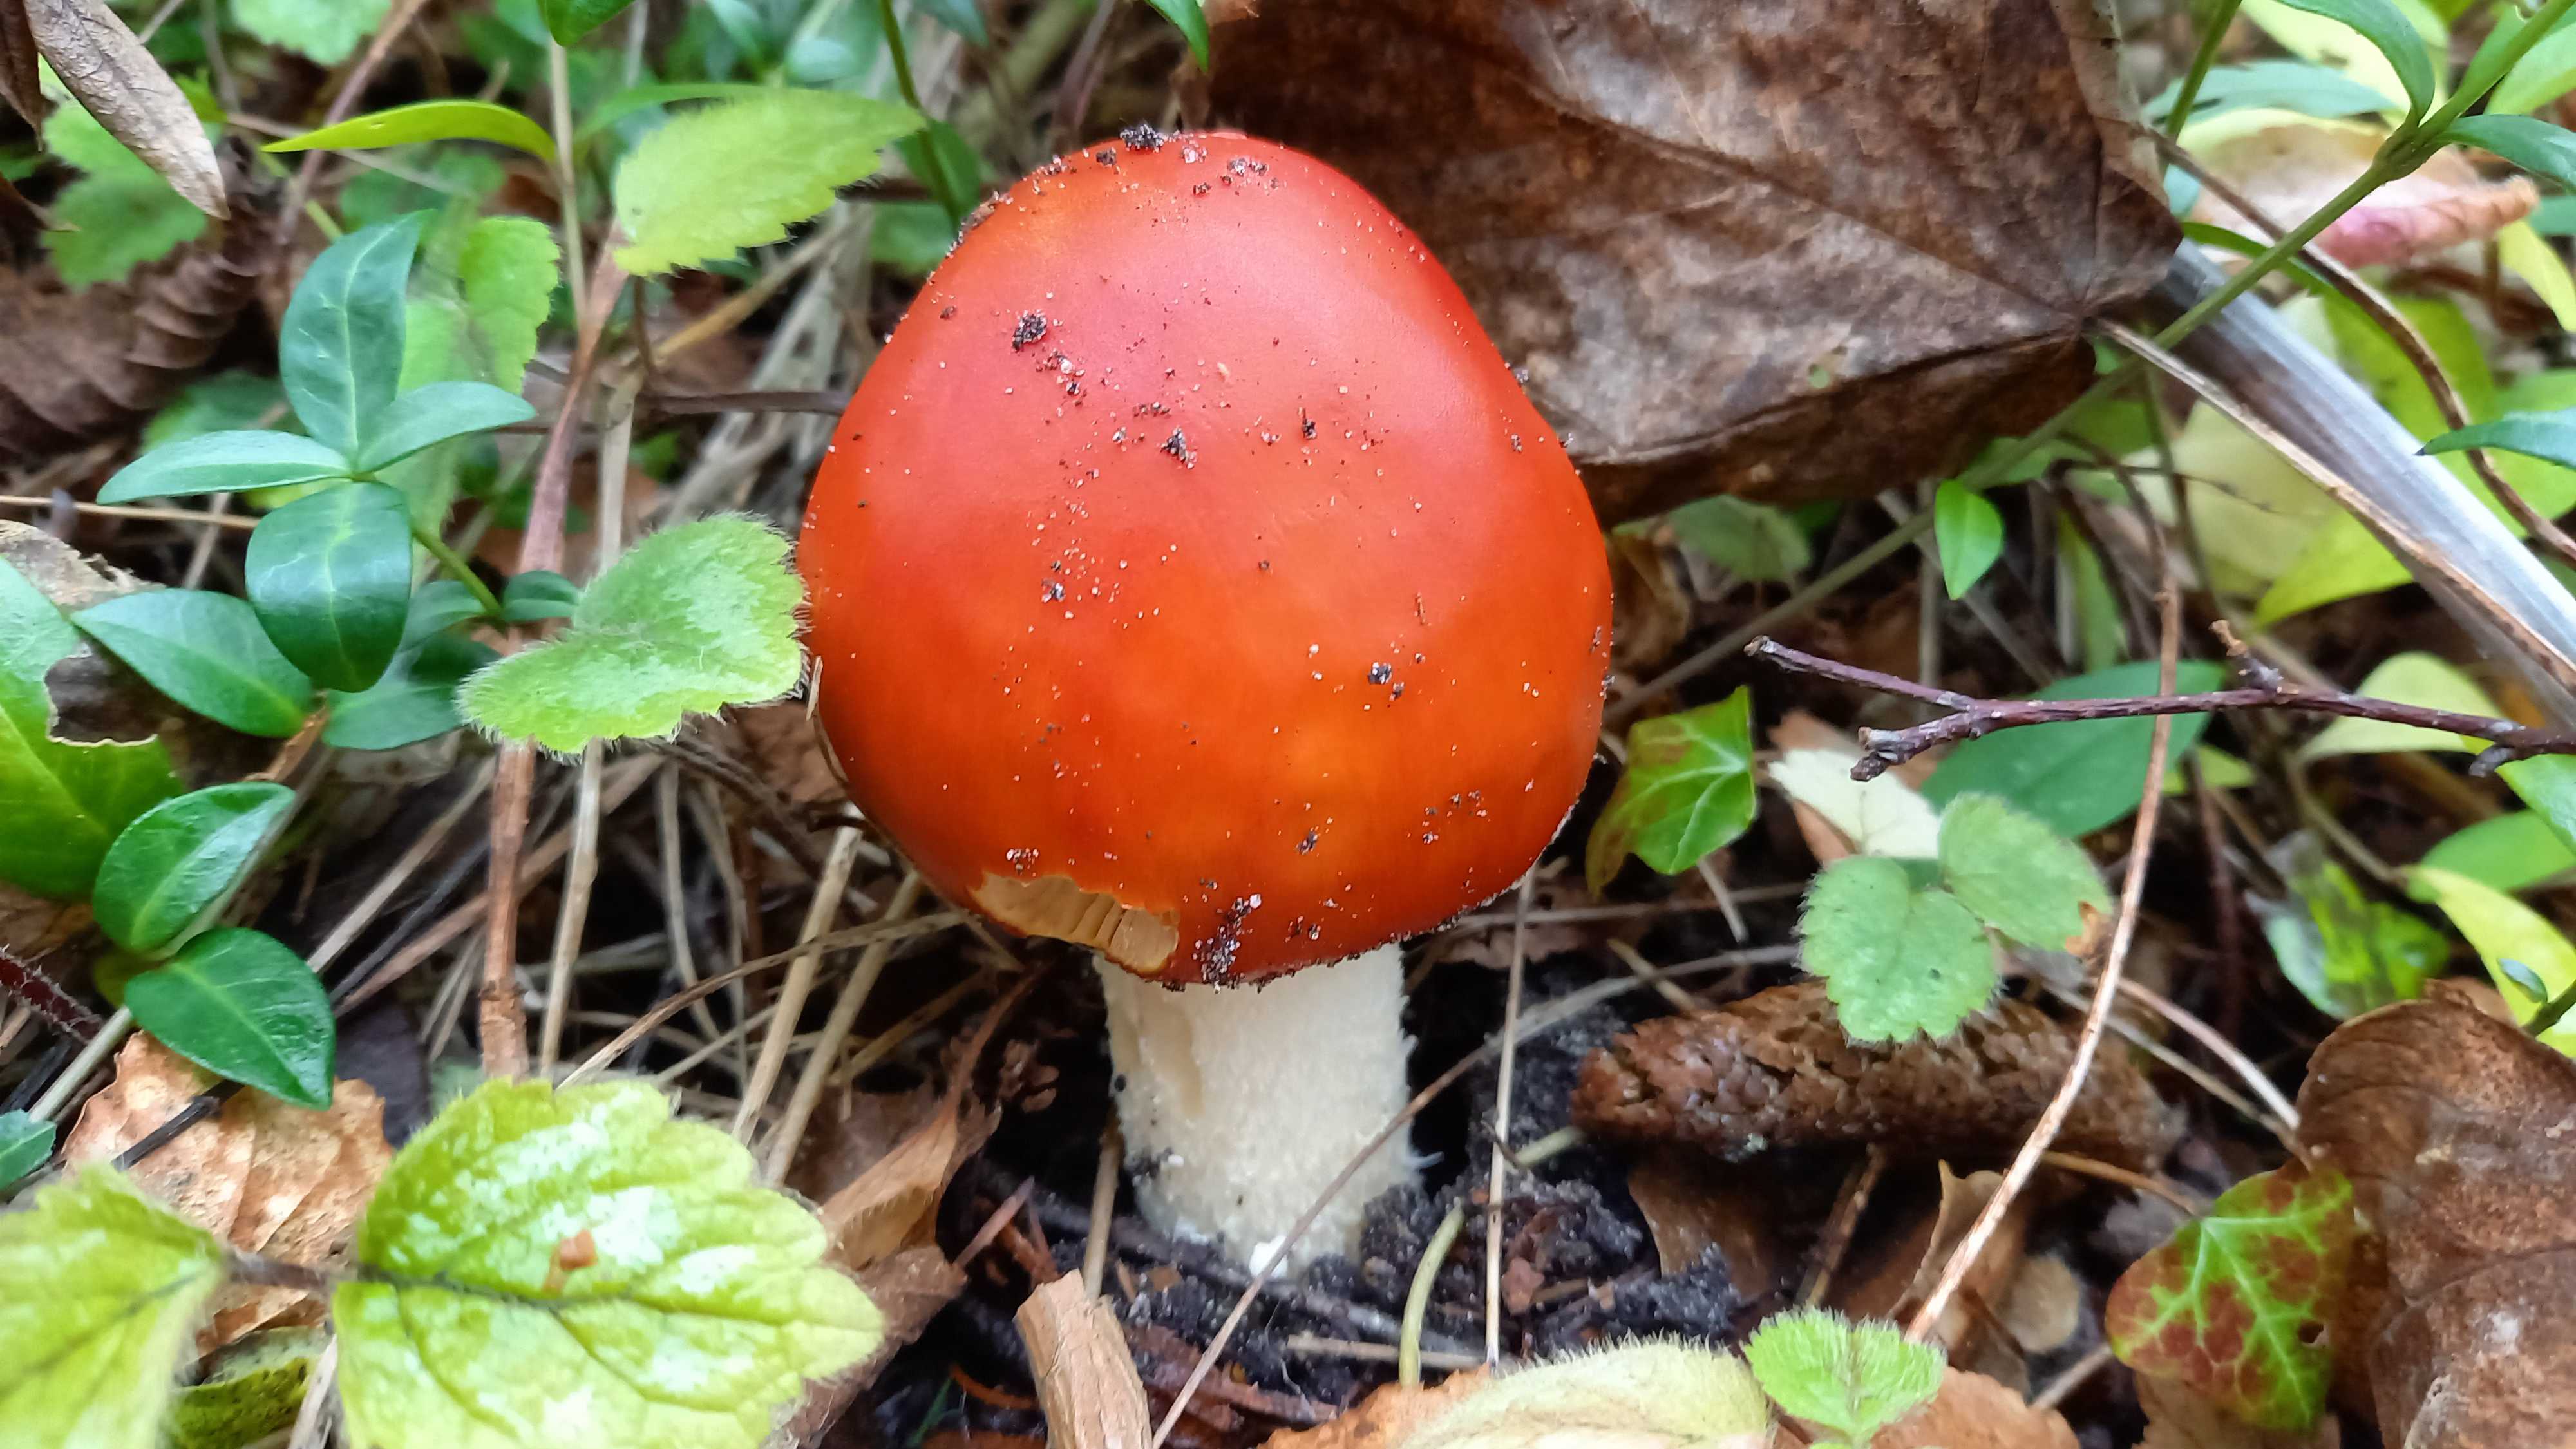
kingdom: Fungi
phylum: Basidiomycota
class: Agaricomycetes
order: Agaricales
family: Amanitaceae
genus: Amanita
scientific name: Amanita muscaria
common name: rød fluesvamp
